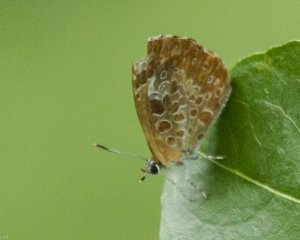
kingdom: Animalia
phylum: Arthropoda
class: Insecta
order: Lepidoptera
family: Lycaenidae
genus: Feniseca
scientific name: Feniseca tarquinius
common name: Harvester
